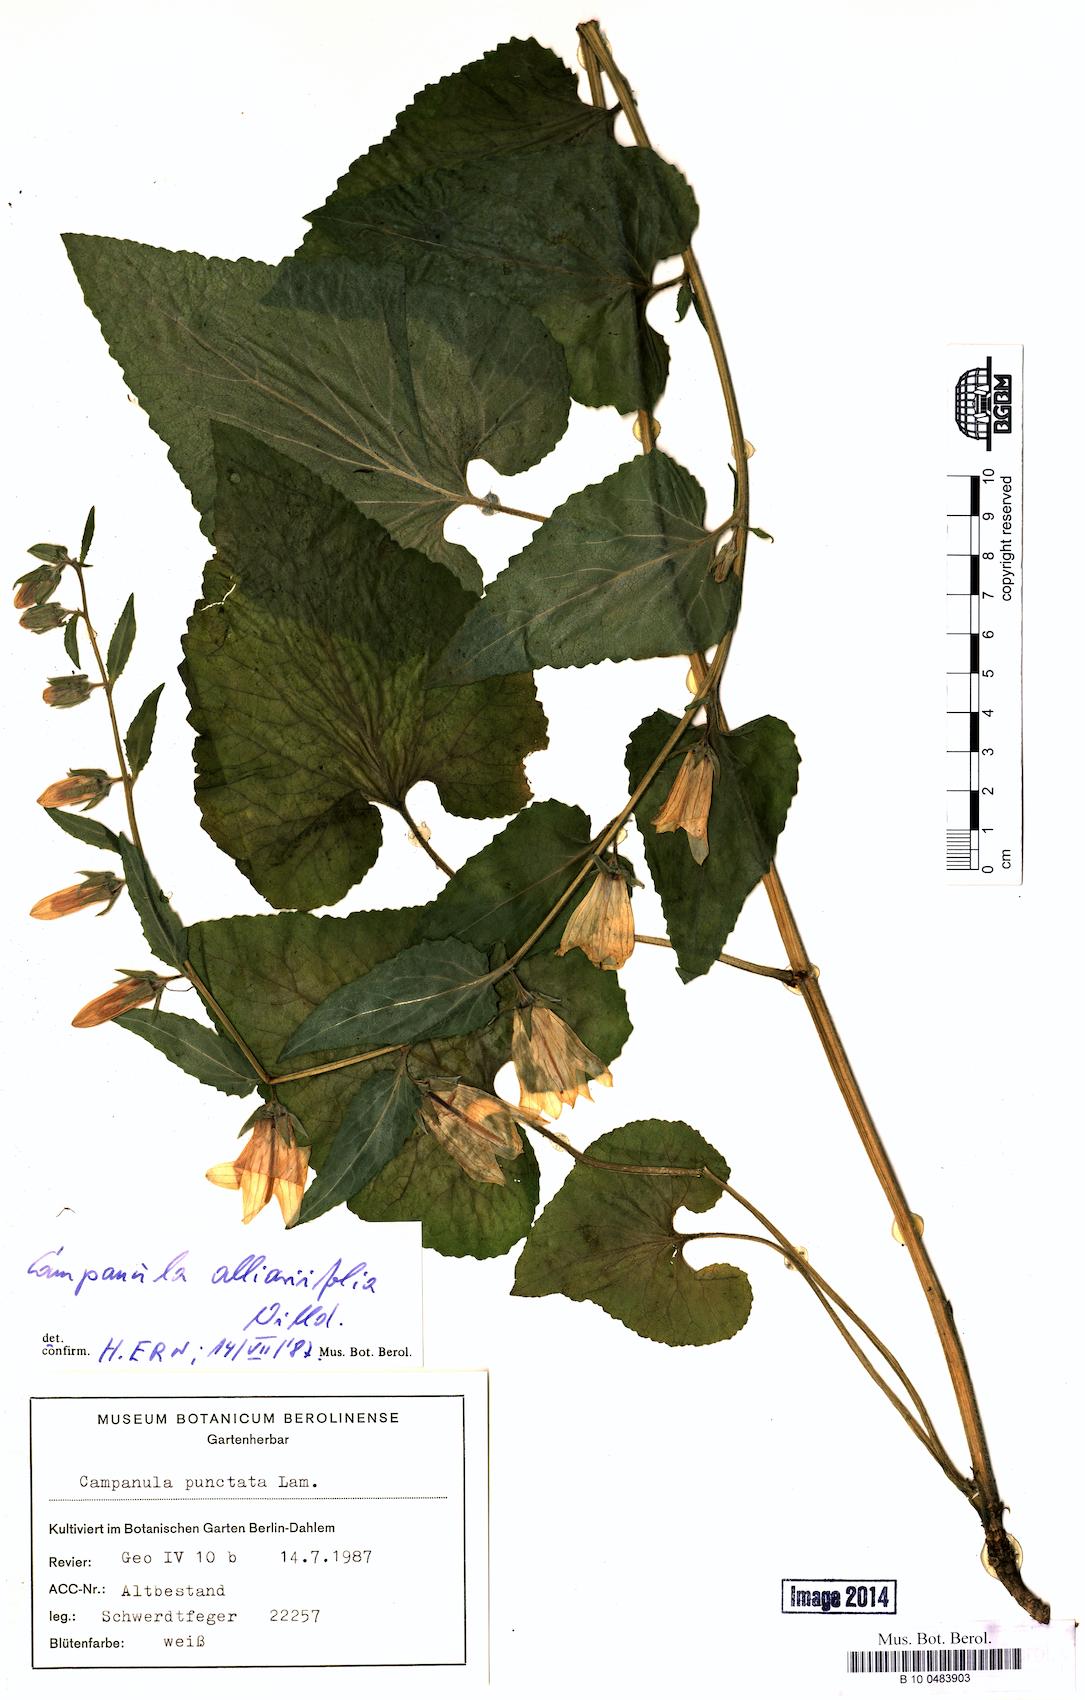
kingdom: Plantae
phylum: Tracheophyta
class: Magnoliopsida
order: Asterales
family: Campanulaceae
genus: Campanula
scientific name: Campanula alliariifolia
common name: Cornish bellflower
